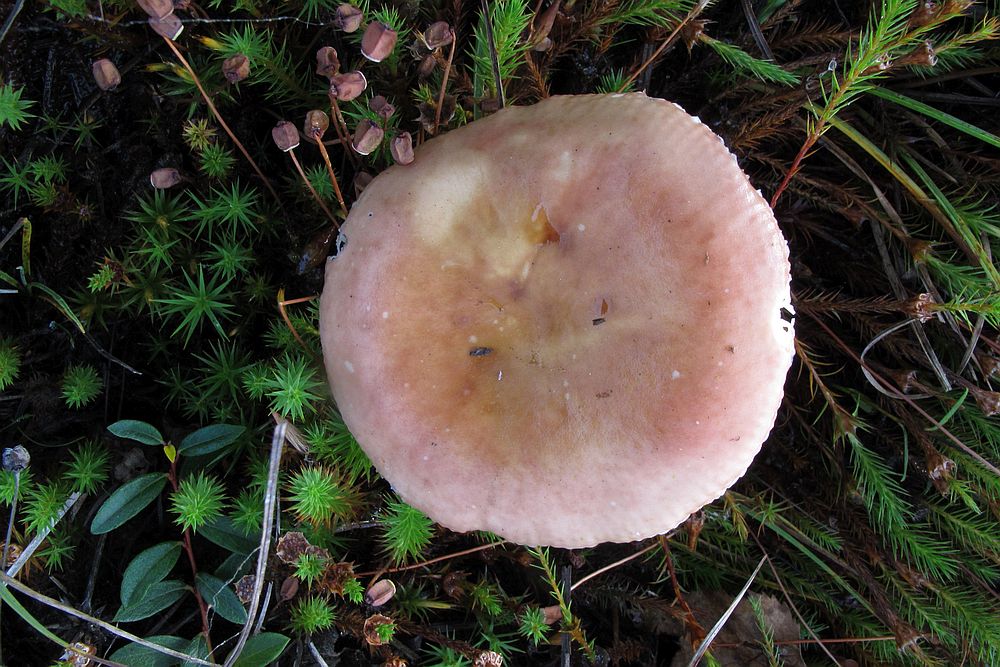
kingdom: Fungi
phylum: Basidiomycota
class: Agaricomycetes
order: Russulales
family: Russulaceae
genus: Russula
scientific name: Russula subrubens
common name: pile-skørhat
